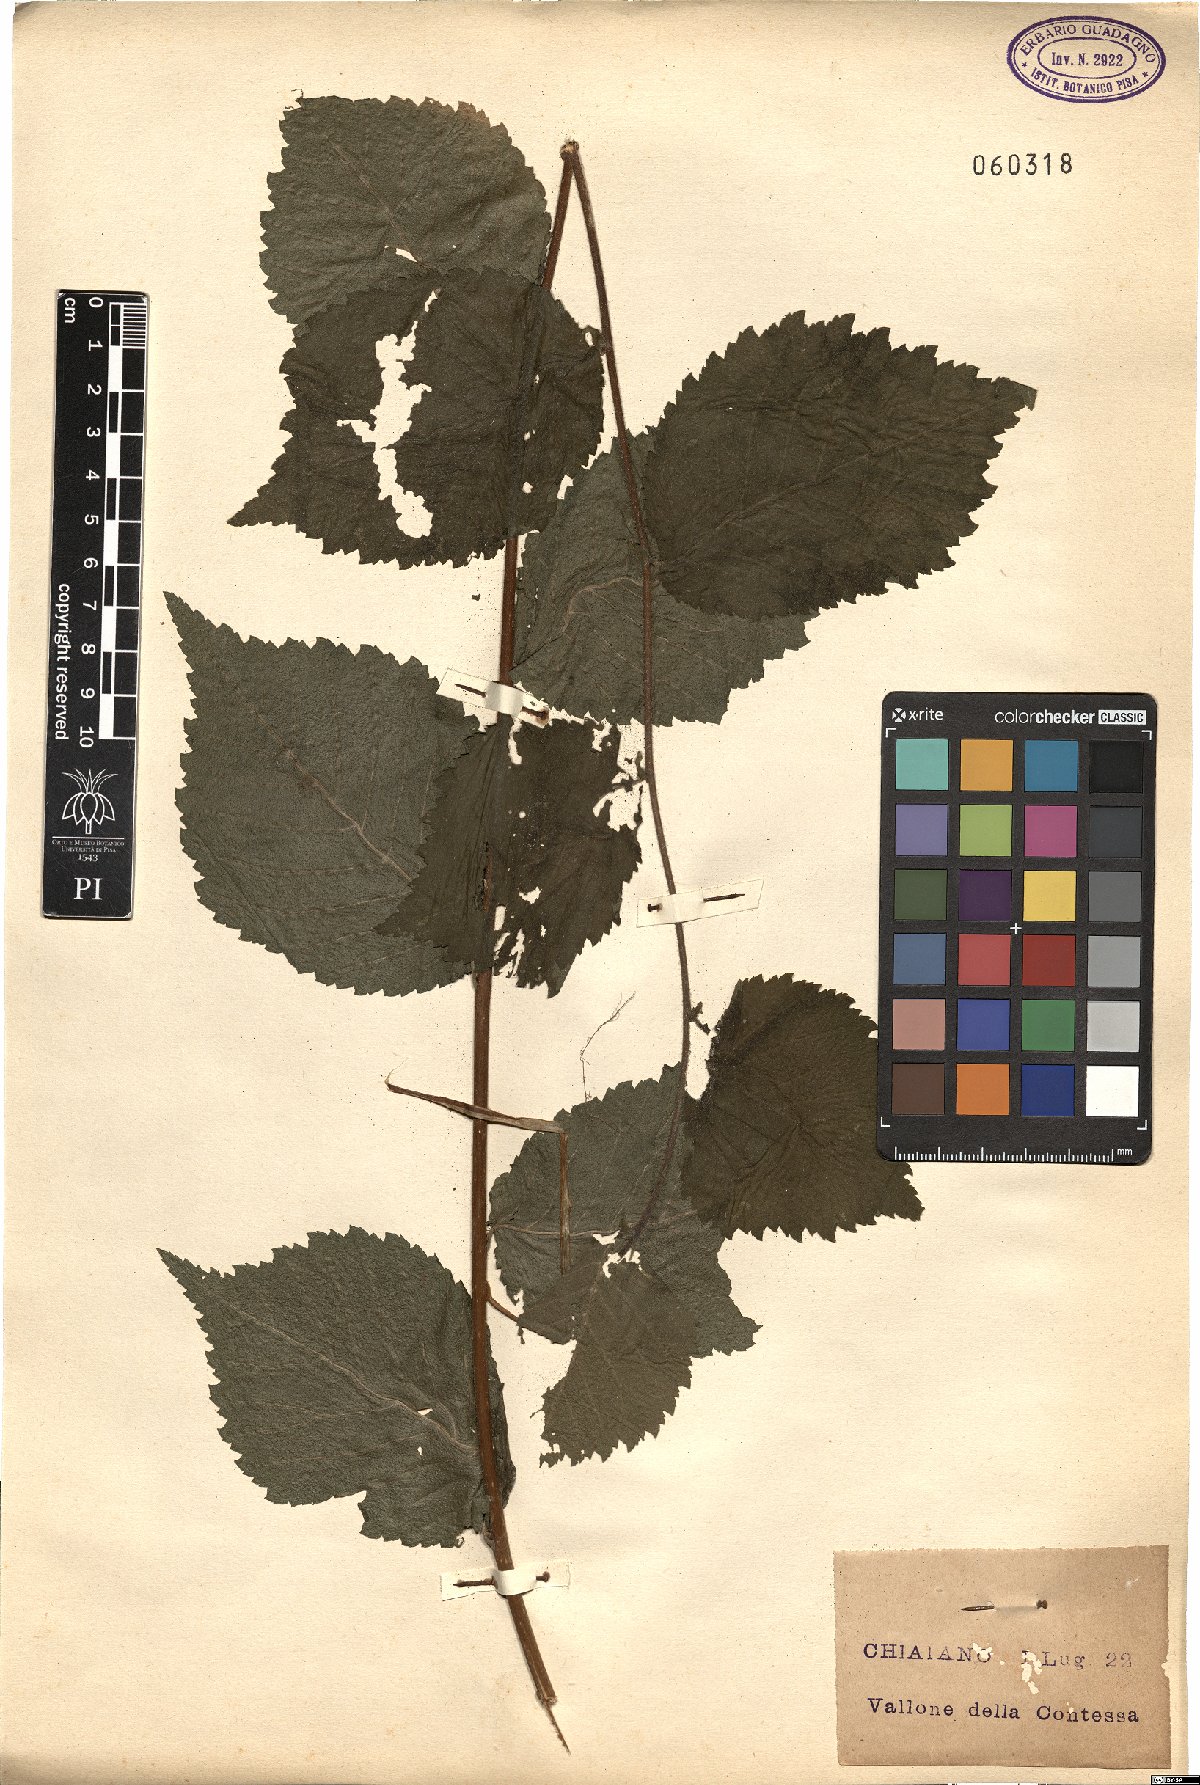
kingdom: Plantae
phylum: Tracheophyta
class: Magnoliopsida
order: Rosales
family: Ulmaceae
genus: Ulmus
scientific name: Ulmus glabra
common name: Wych elm
